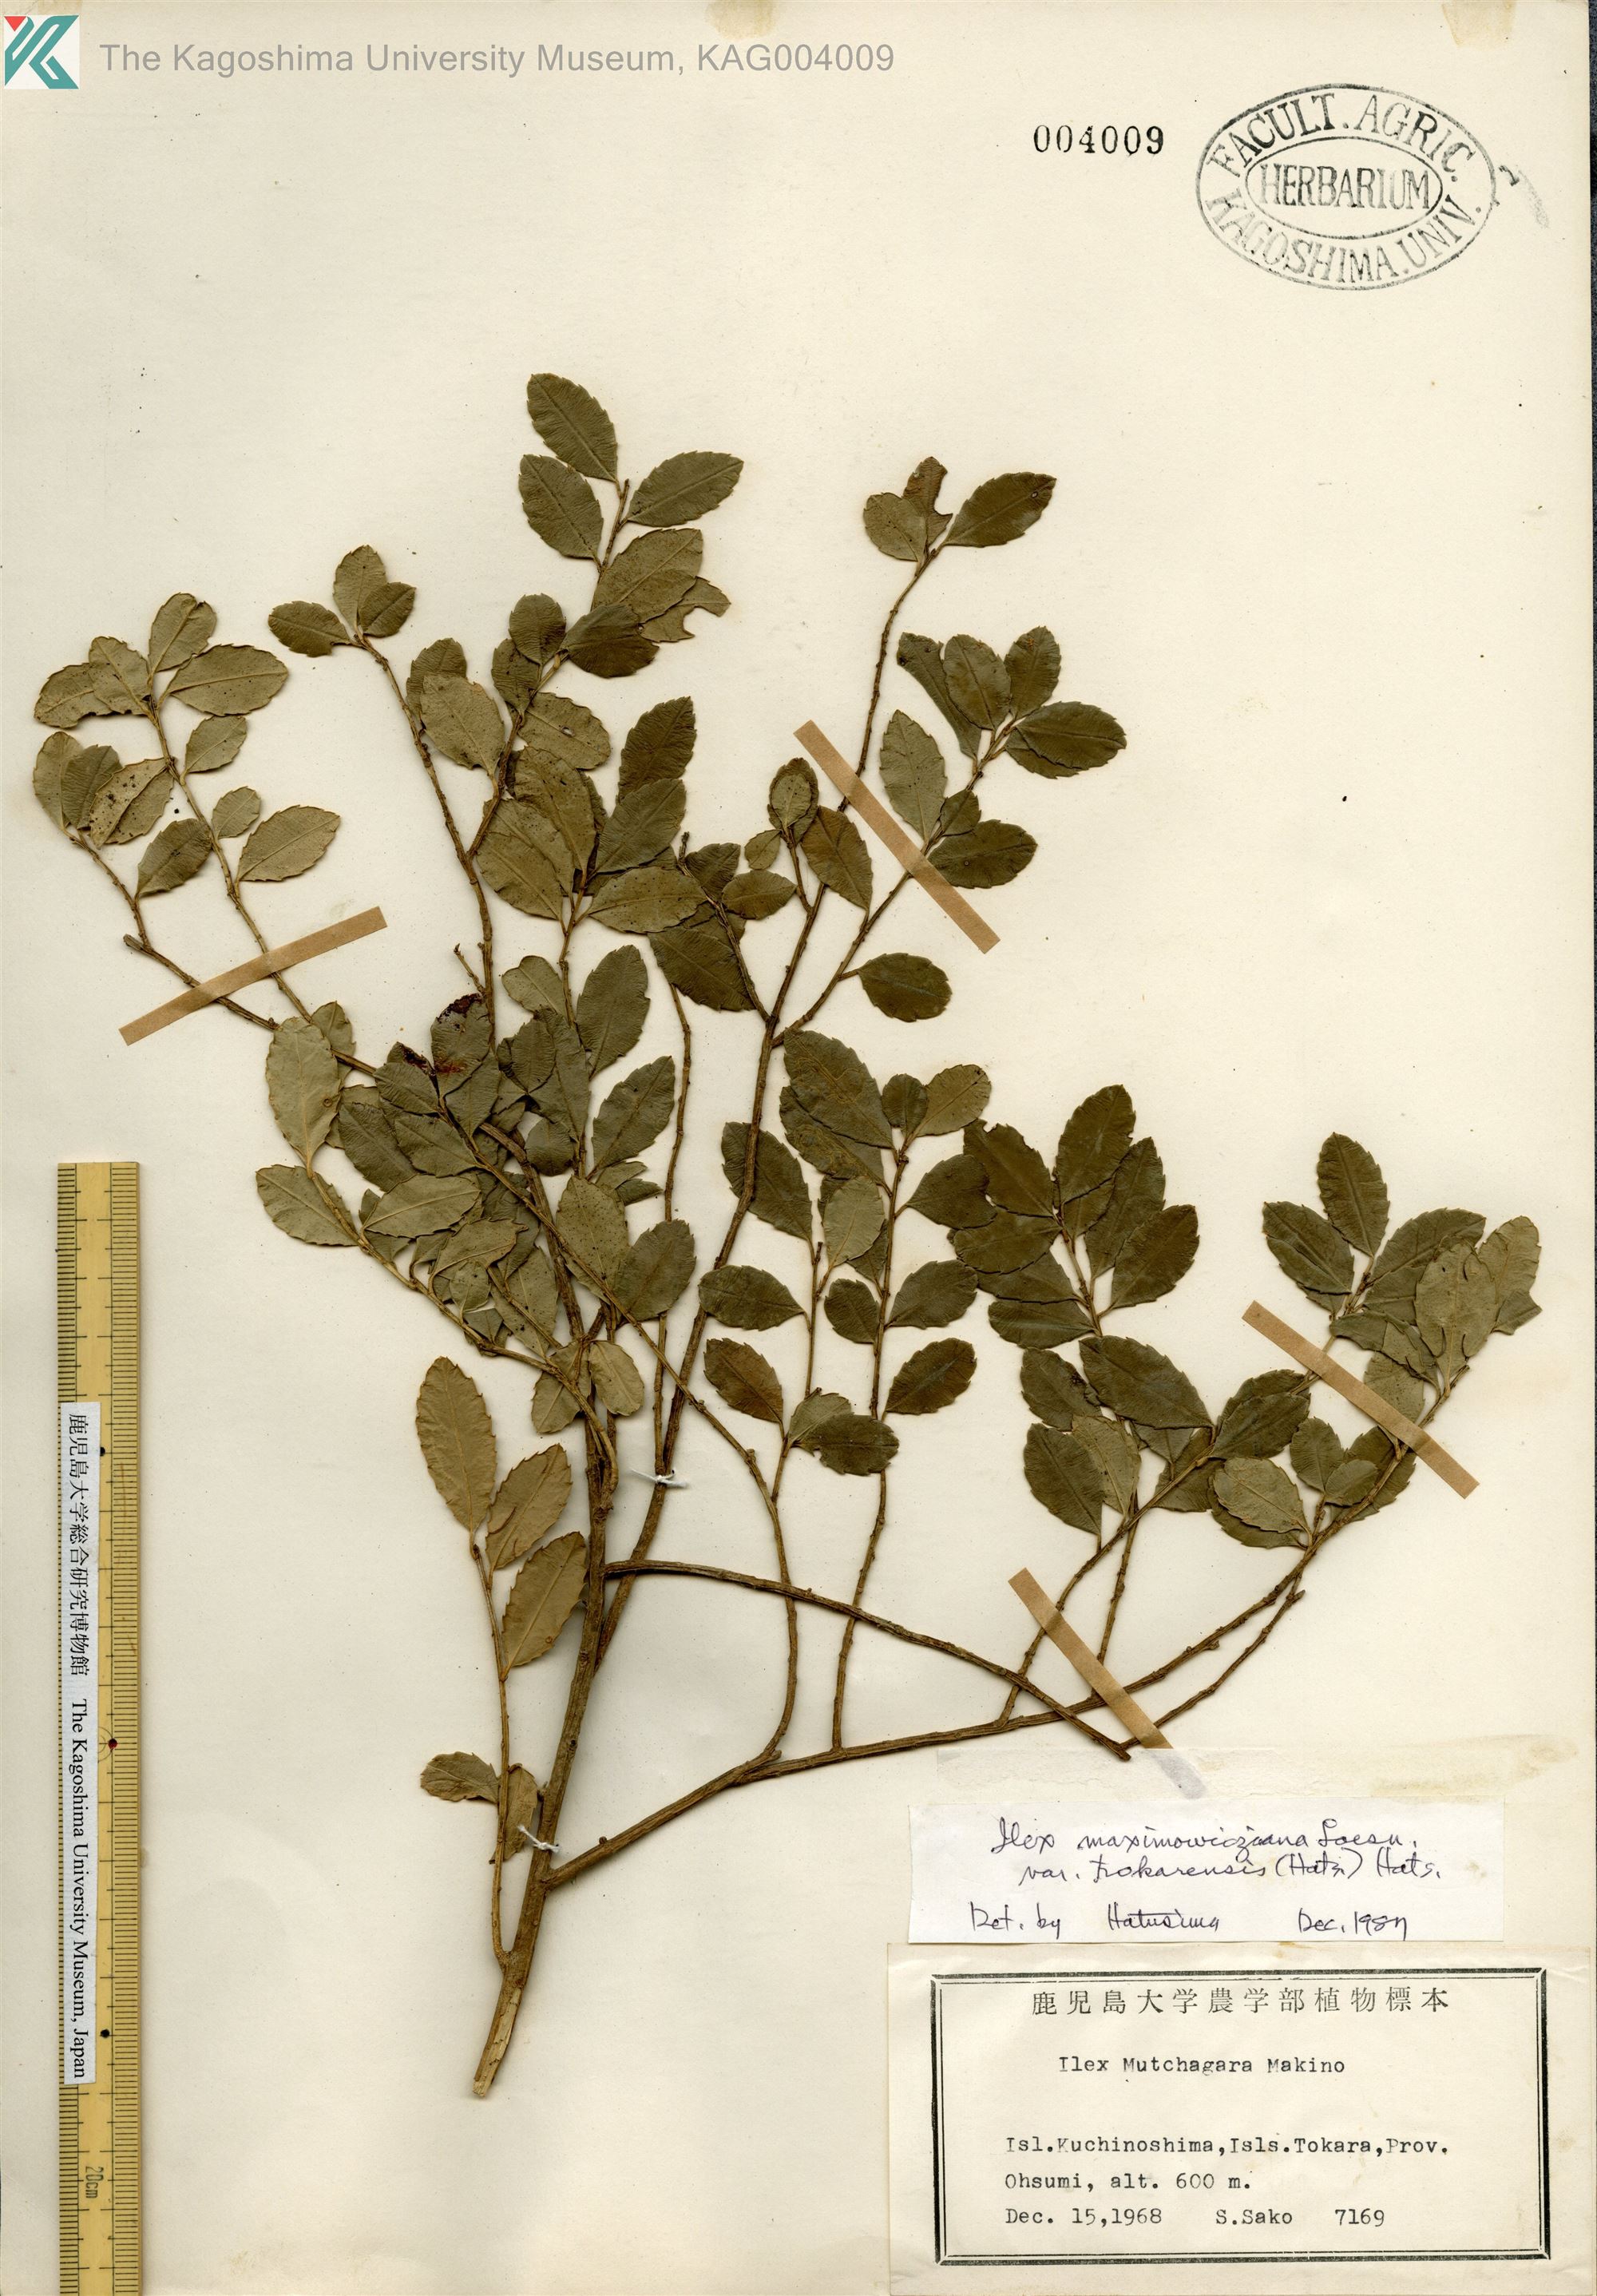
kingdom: Plantae
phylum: Tracheophyta
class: Magnoliopsida
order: Aquifoliales
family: Aquifoliaceae
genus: Ilex
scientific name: Ilex maximowicziana
